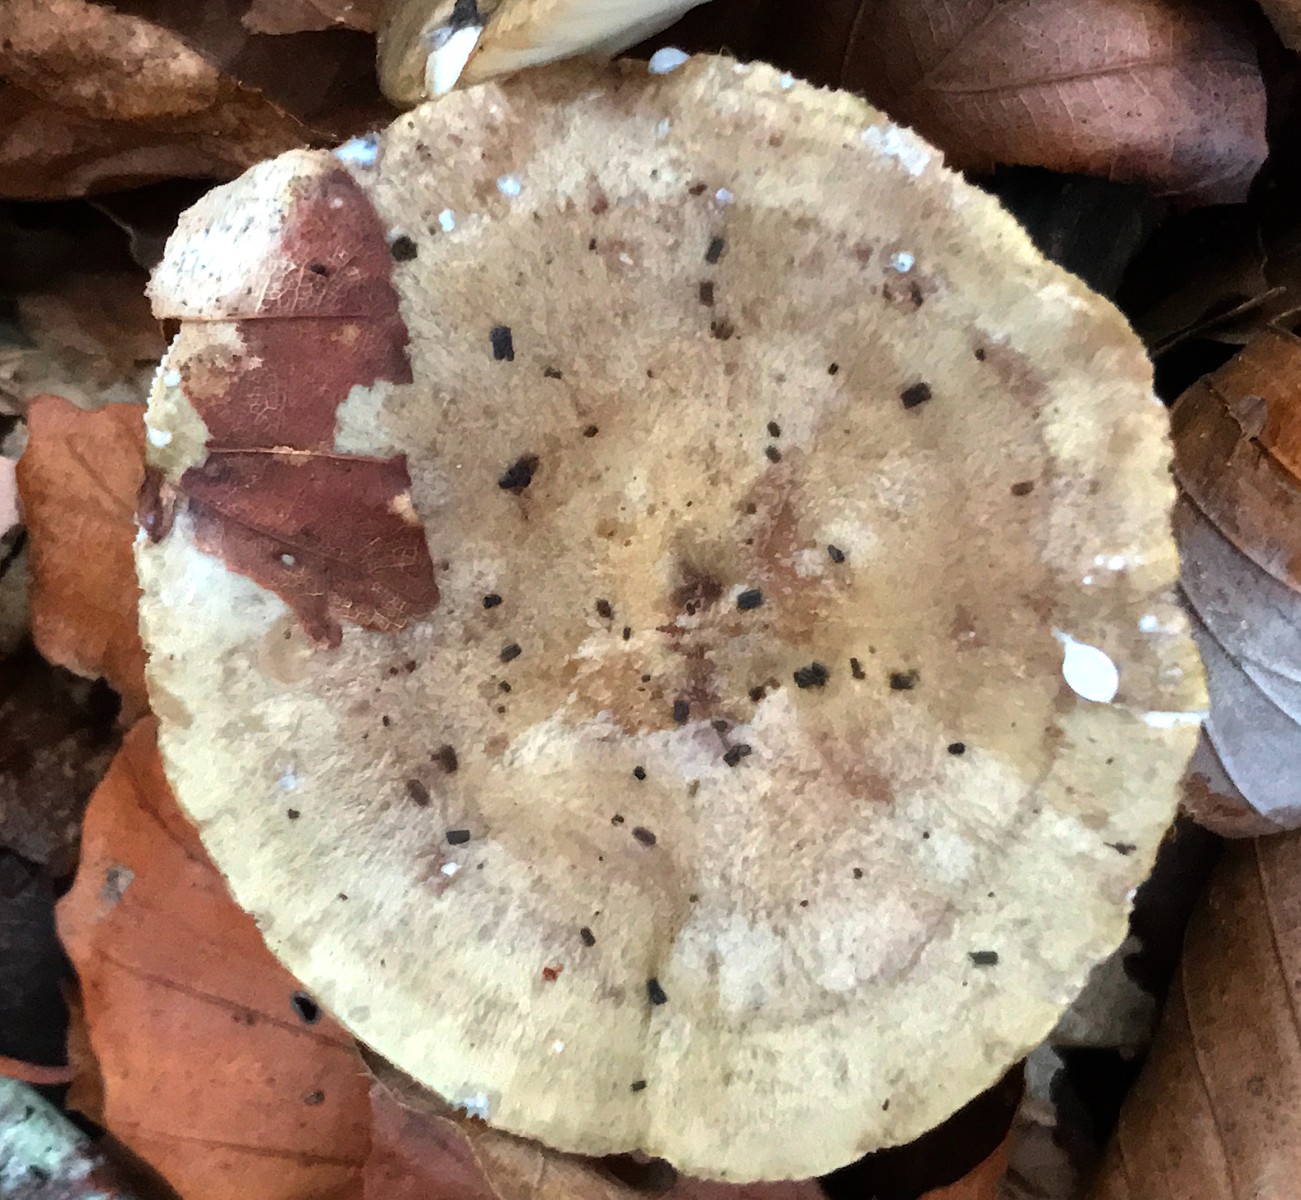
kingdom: Fungi
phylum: Basidiomycota
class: Agaricomycetes
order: Russulales
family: Russulaceae
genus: Lactarius
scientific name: Lactarius blennius
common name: dråbeplettet mælkehat
